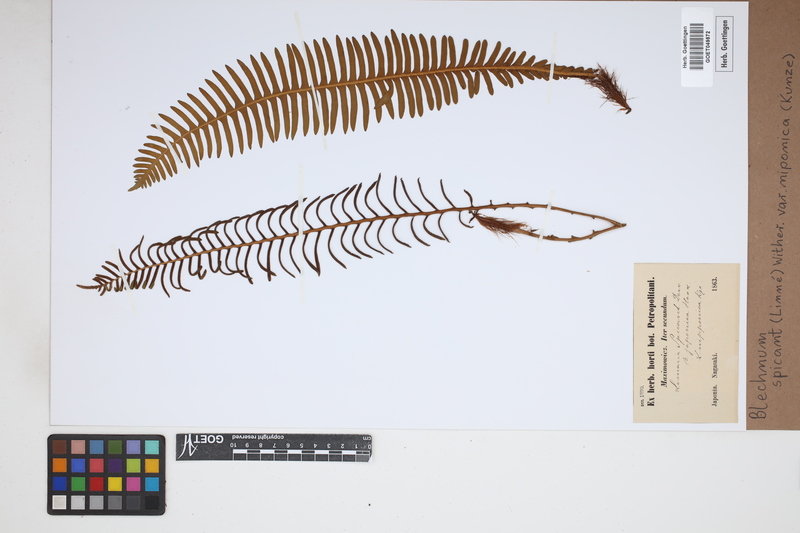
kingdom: Plantae
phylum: Tracheophyta
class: Polypodiopsida
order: Polypodiales
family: Blechnaceae
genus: Struthiopteris
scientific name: Struthiopteris spicant
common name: Deer fern
